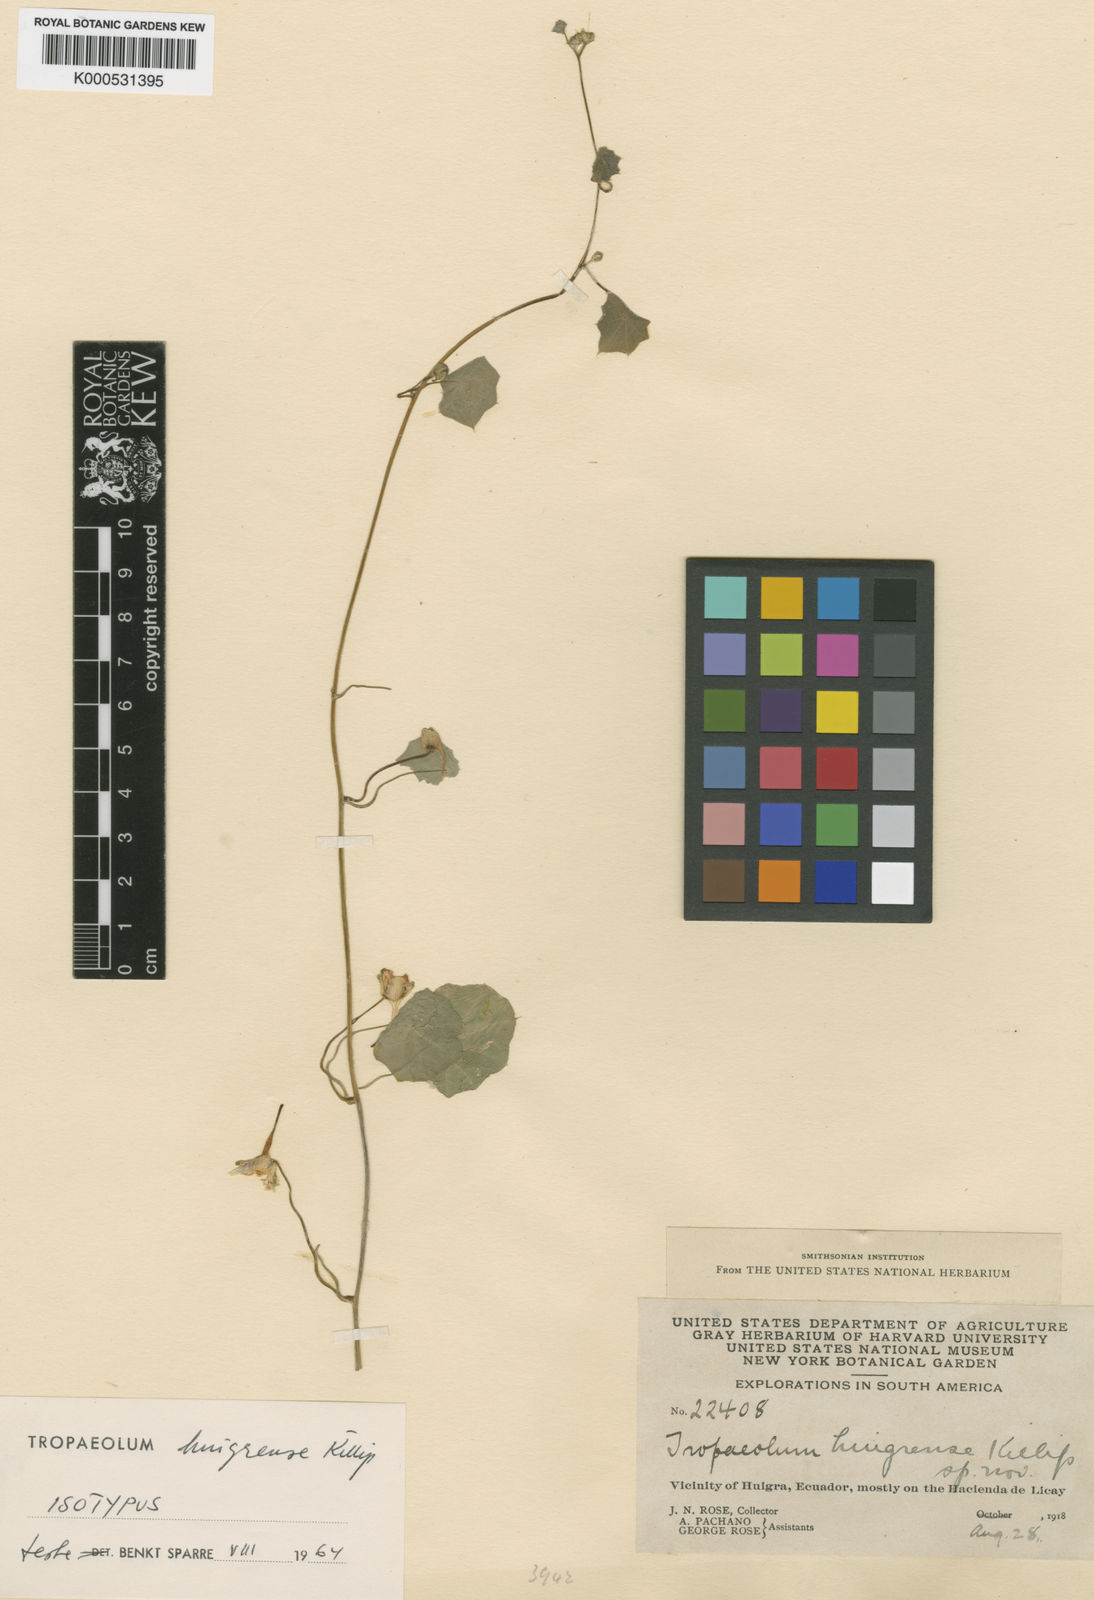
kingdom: Plantae
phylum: Tracheophyta
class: Magnoliopsida
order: Brassicales
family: Tropaeolaceae
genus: Tropaeolum
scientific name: Tropaeolum huigrense
